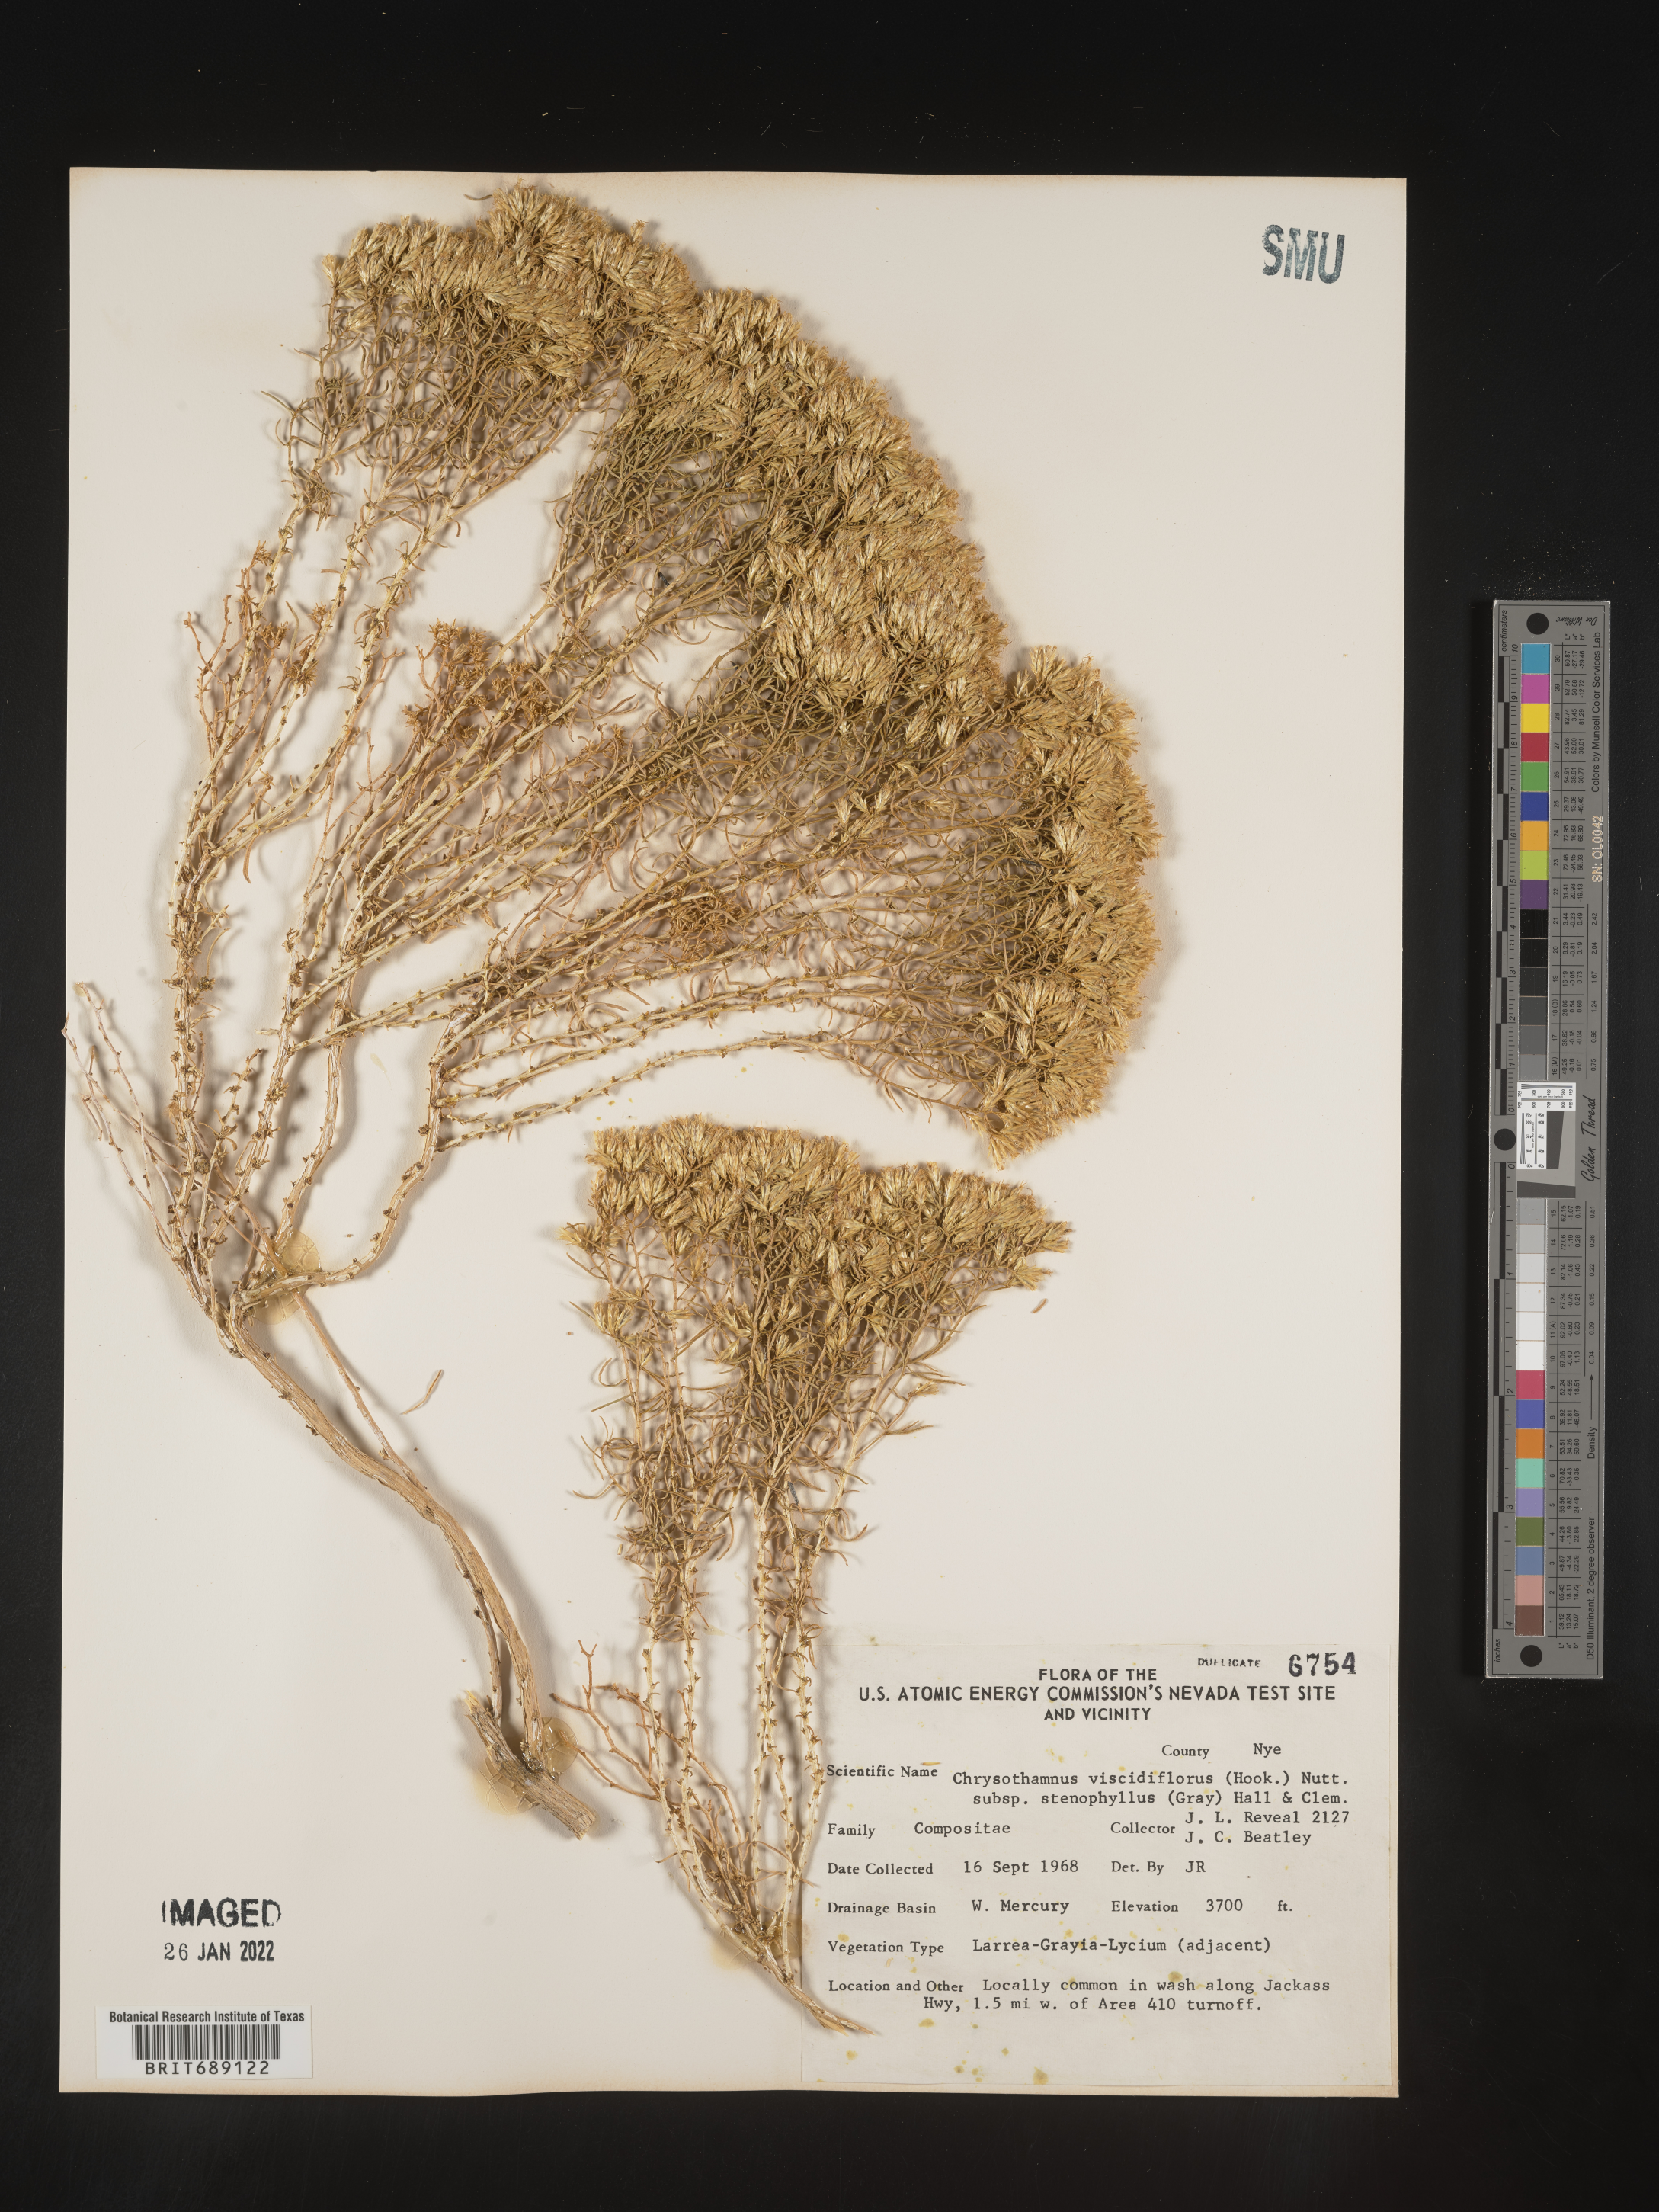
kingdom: Plantae
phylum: Tracheophyta
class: Magnoliopsida
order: Asterales
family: Asteraceae
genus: Chrysothamnus
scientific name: Chrysothamnus viscidiflorus
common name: Yellow rabbitbrush
